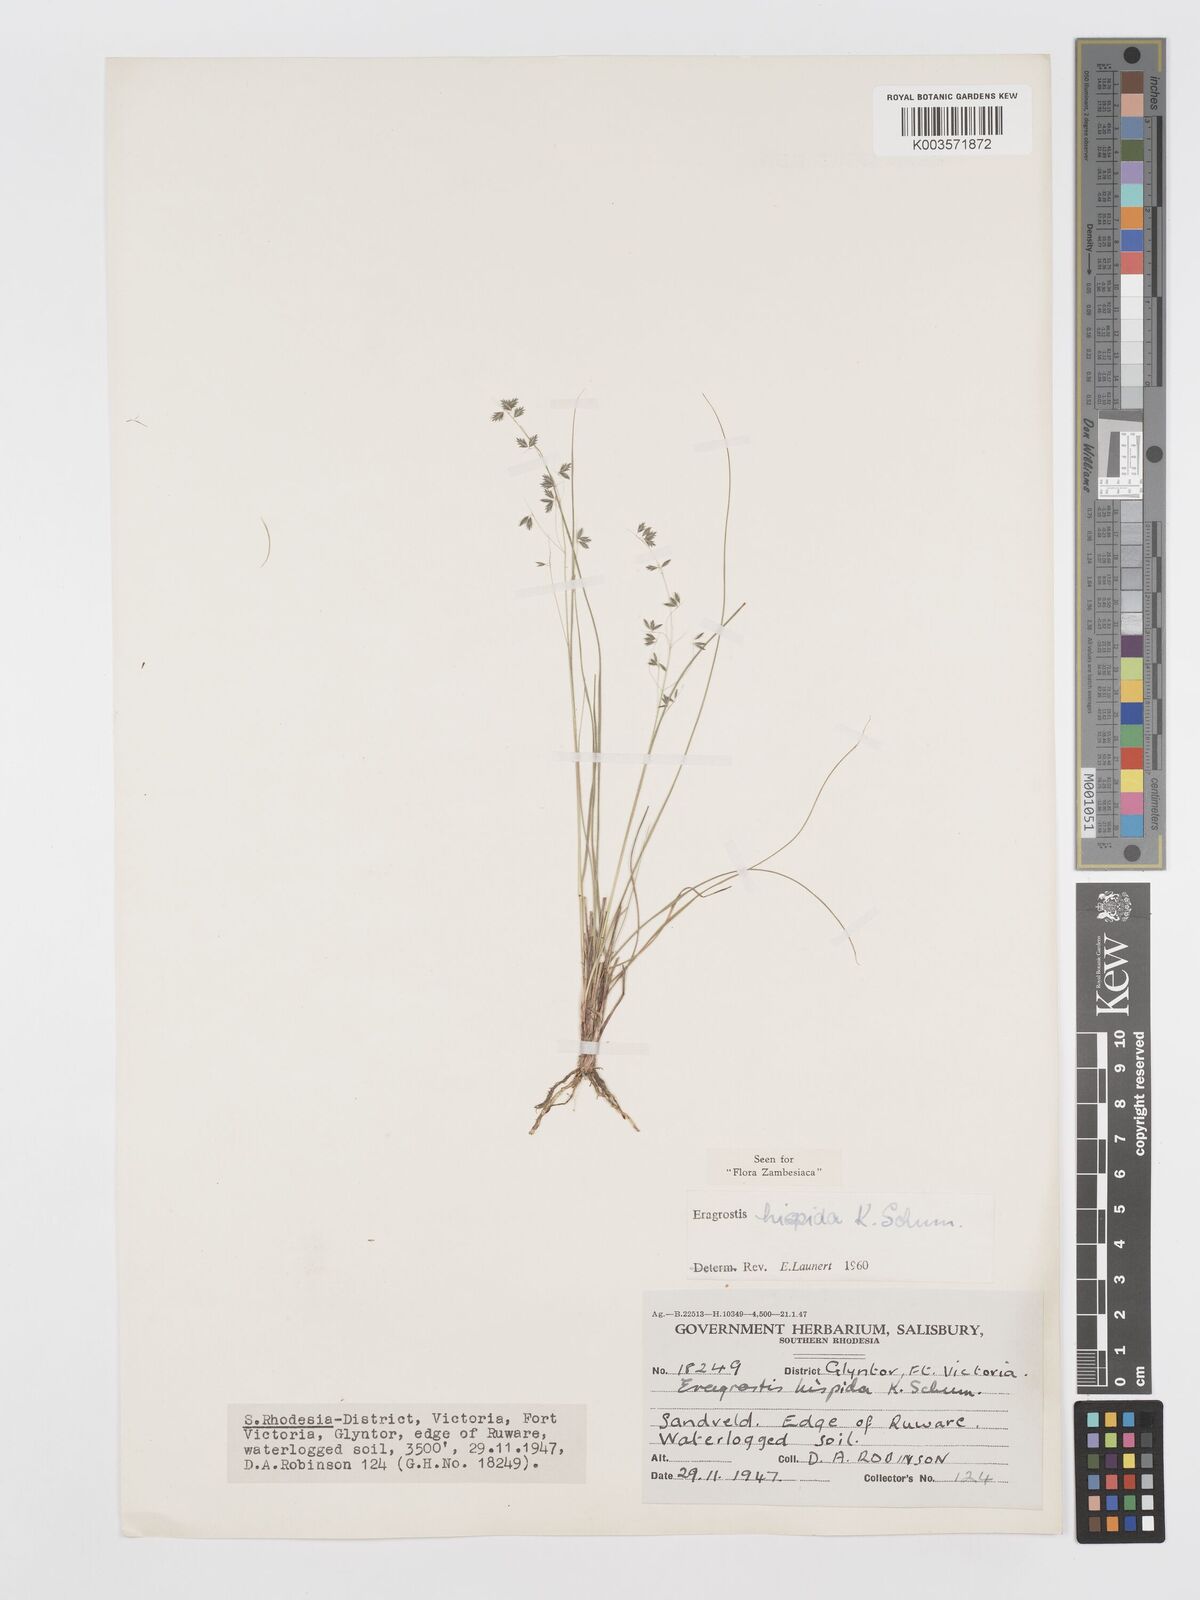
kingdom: Plantae
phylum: Tracheophyta
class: Liliopsida
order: Poales
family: Poaceae
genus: Eragrostis
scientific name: Eragrostis hispida
